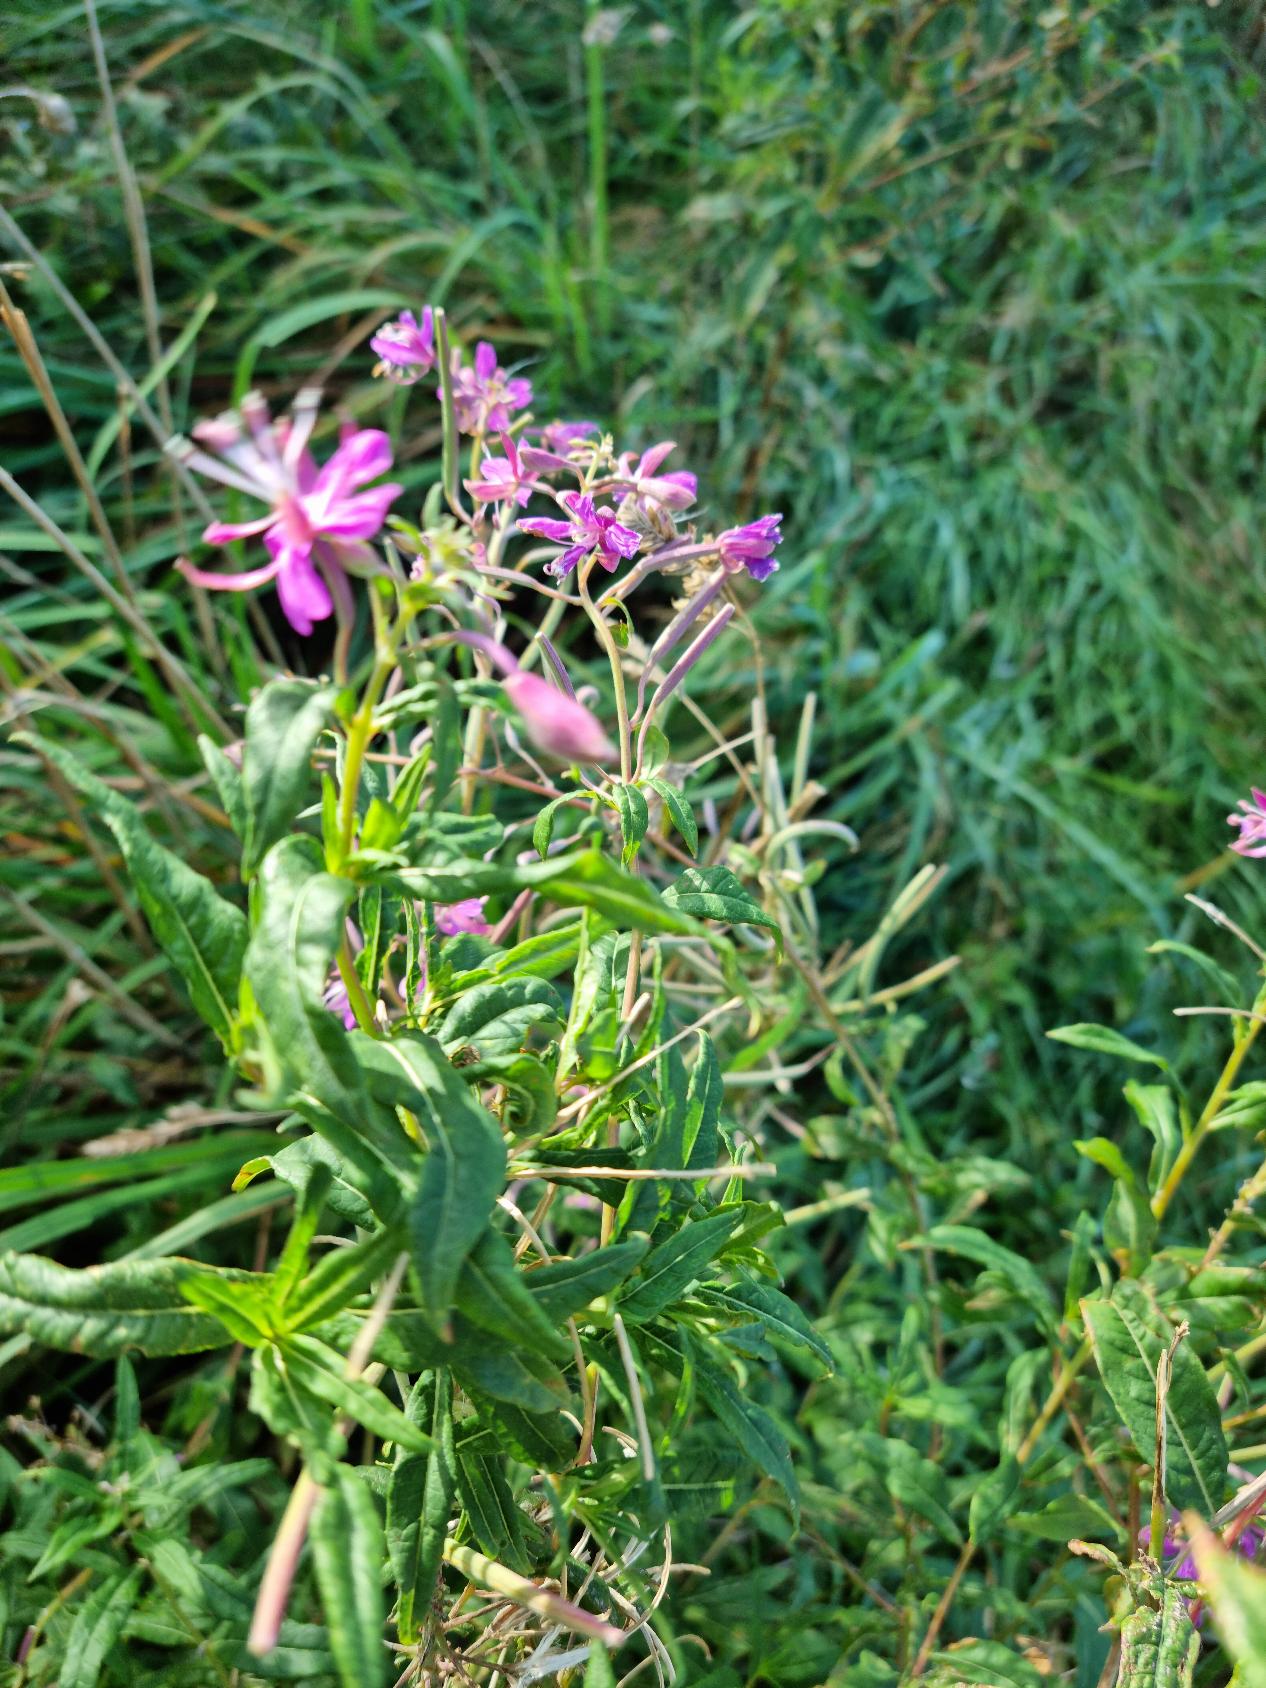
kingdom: Plantae
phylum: Tracheophyta
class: Magnoliopsida
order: Myrtales
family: Onagraceae
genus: Chamaenerion
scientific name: Chamaenerion angustifolium
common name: Gederams
